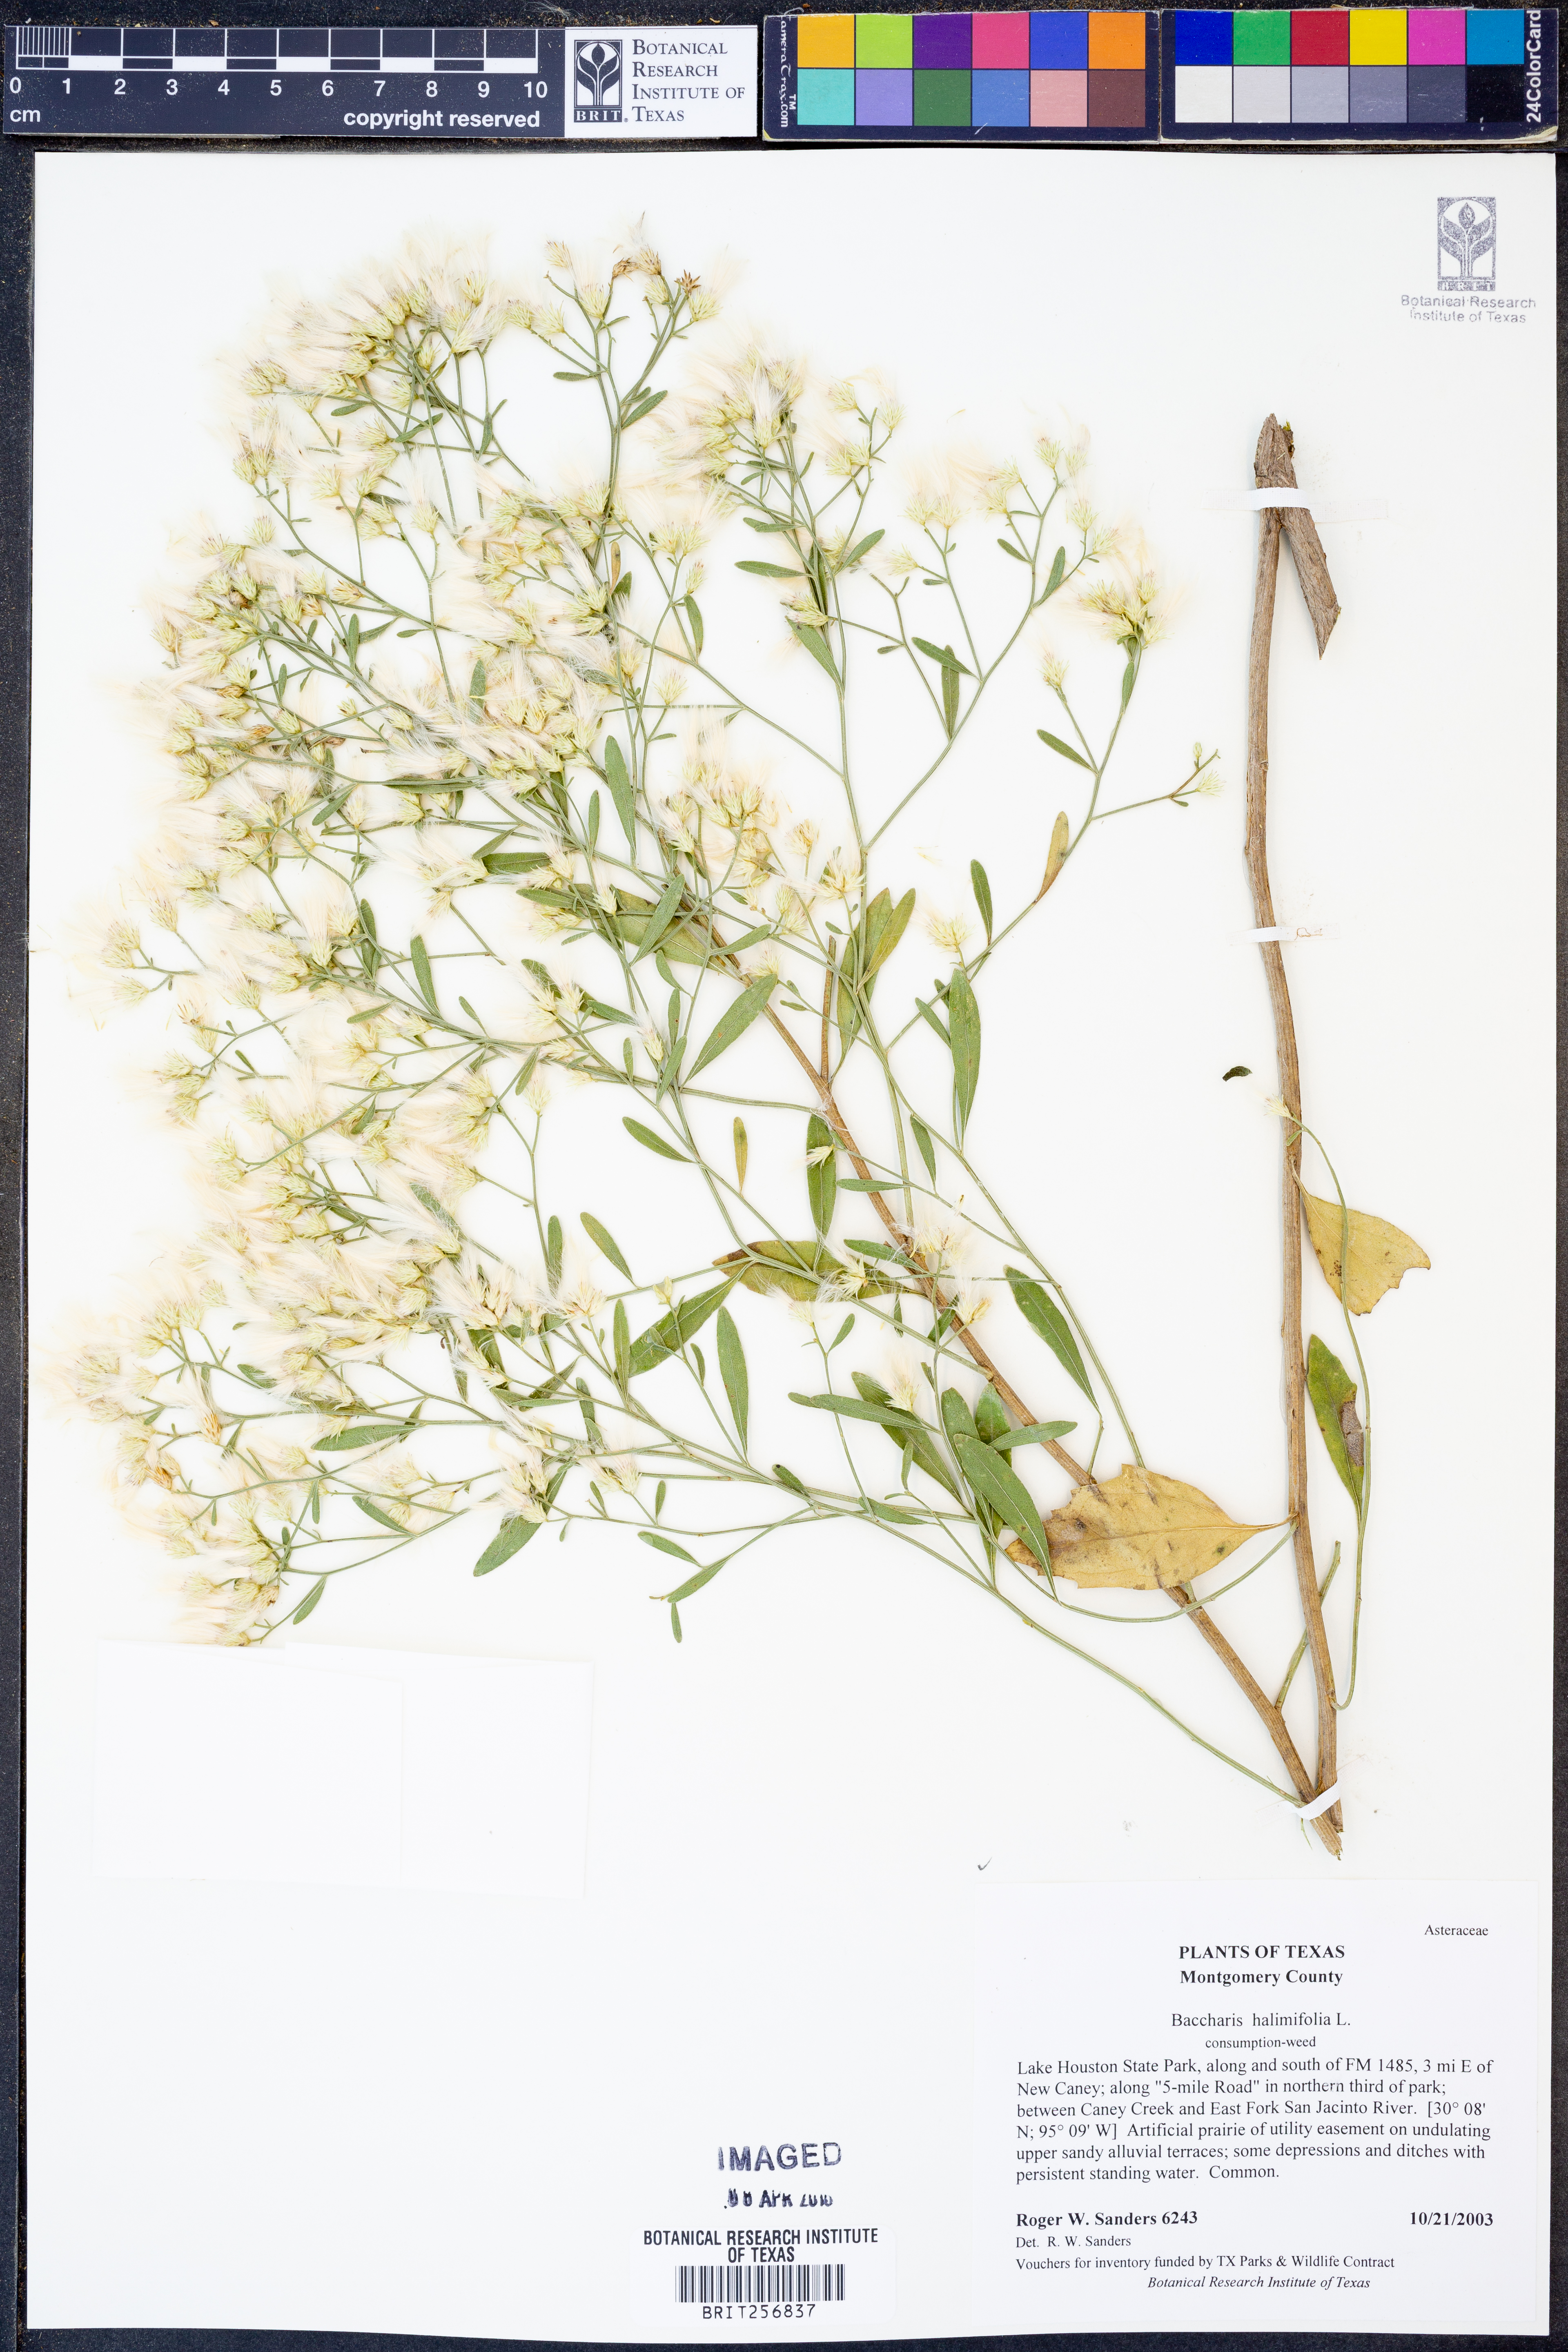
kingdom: Plantae
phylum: Tracheophyta
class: Magnoliopsida
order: Asterales
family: Asteraceae
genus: Nidorella
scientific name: Nidorella ivifolia
